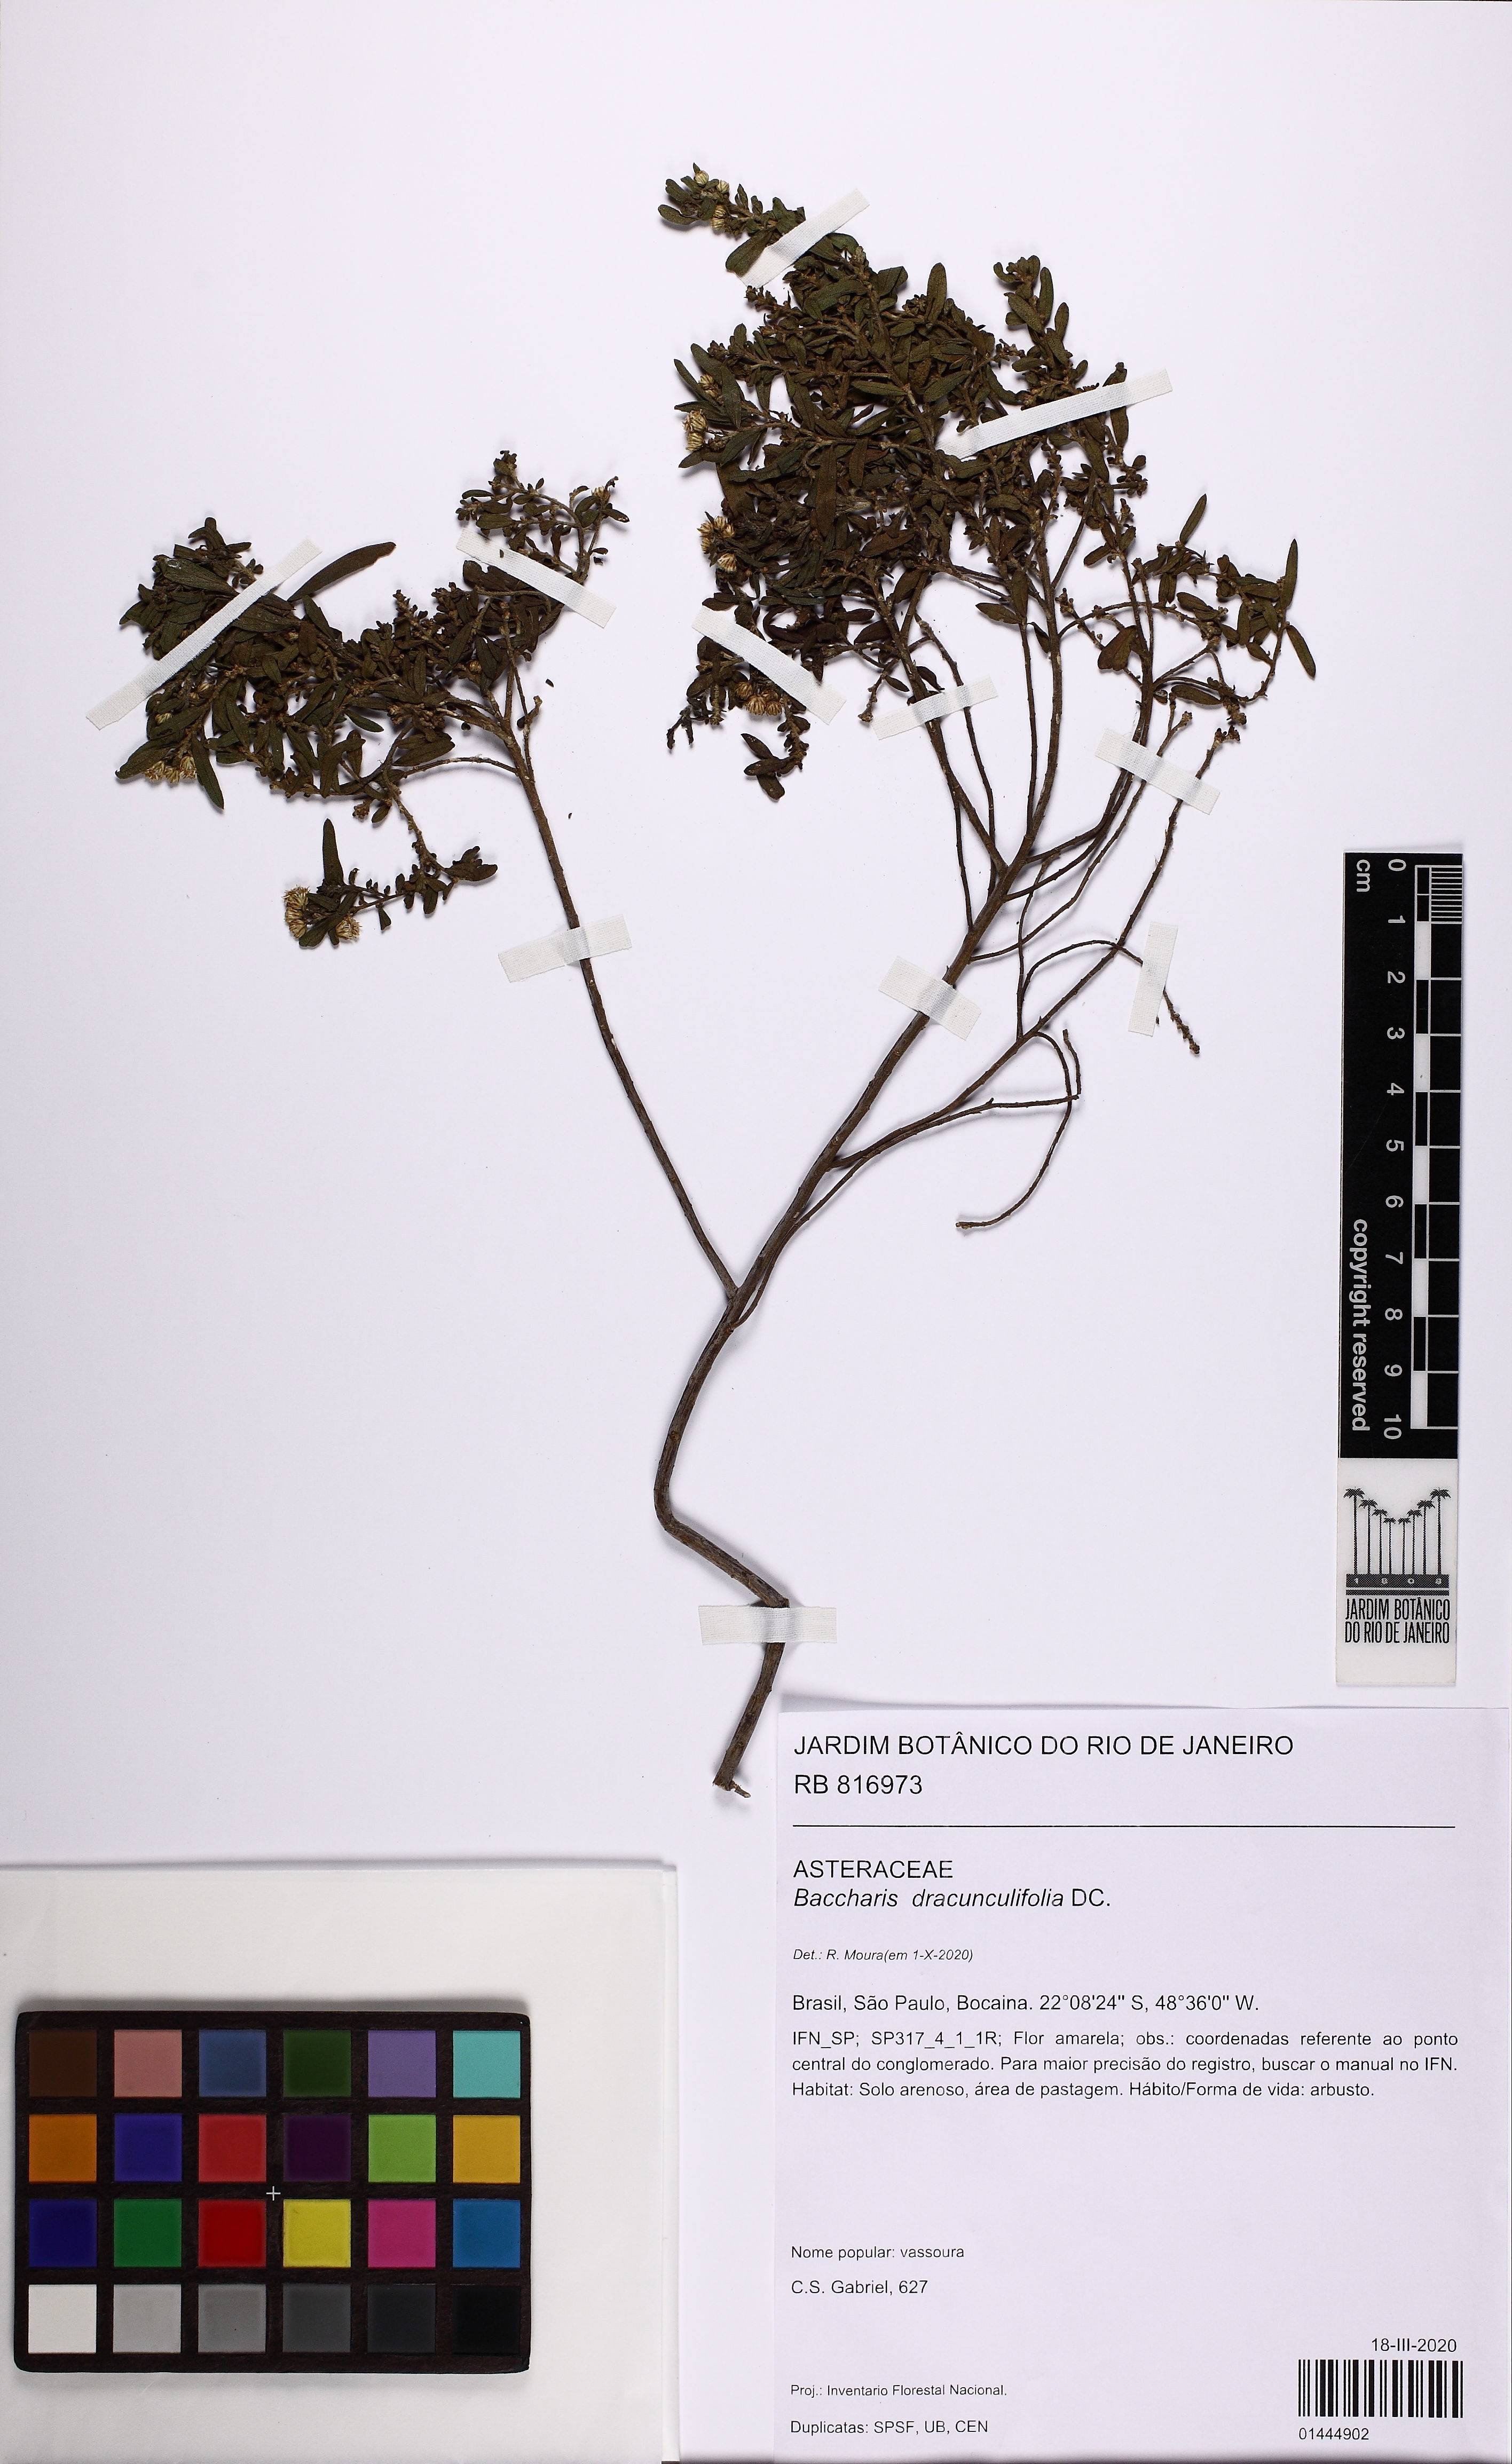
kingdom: Plantae
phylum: Tracheophyta
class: Magnoliopsida
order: Asterales
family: Asteraceae
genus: Baccharis
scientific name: Baccharis dracunculifolia
